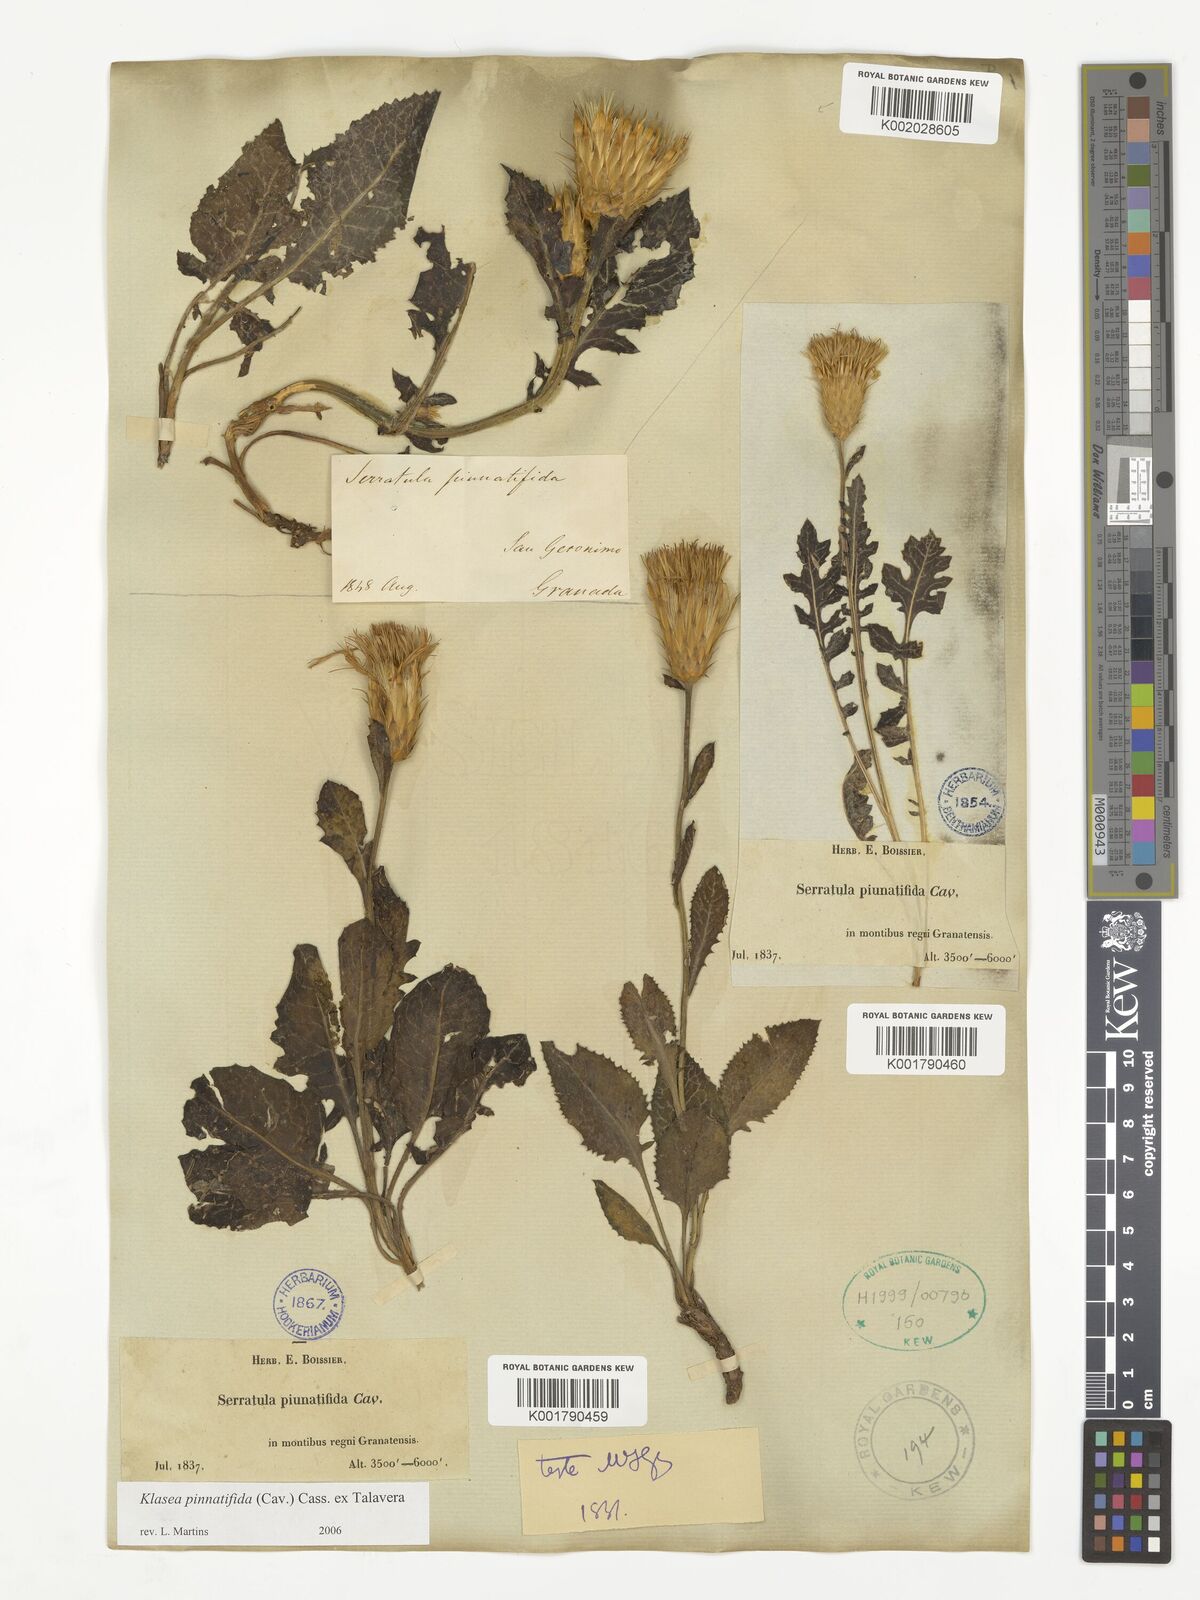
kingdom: Plantae
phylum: Tracheophyta
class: Magnoliopsida
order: Asterales
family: Asteraceae
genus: Klasea
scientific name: Klasea pinnatifida
